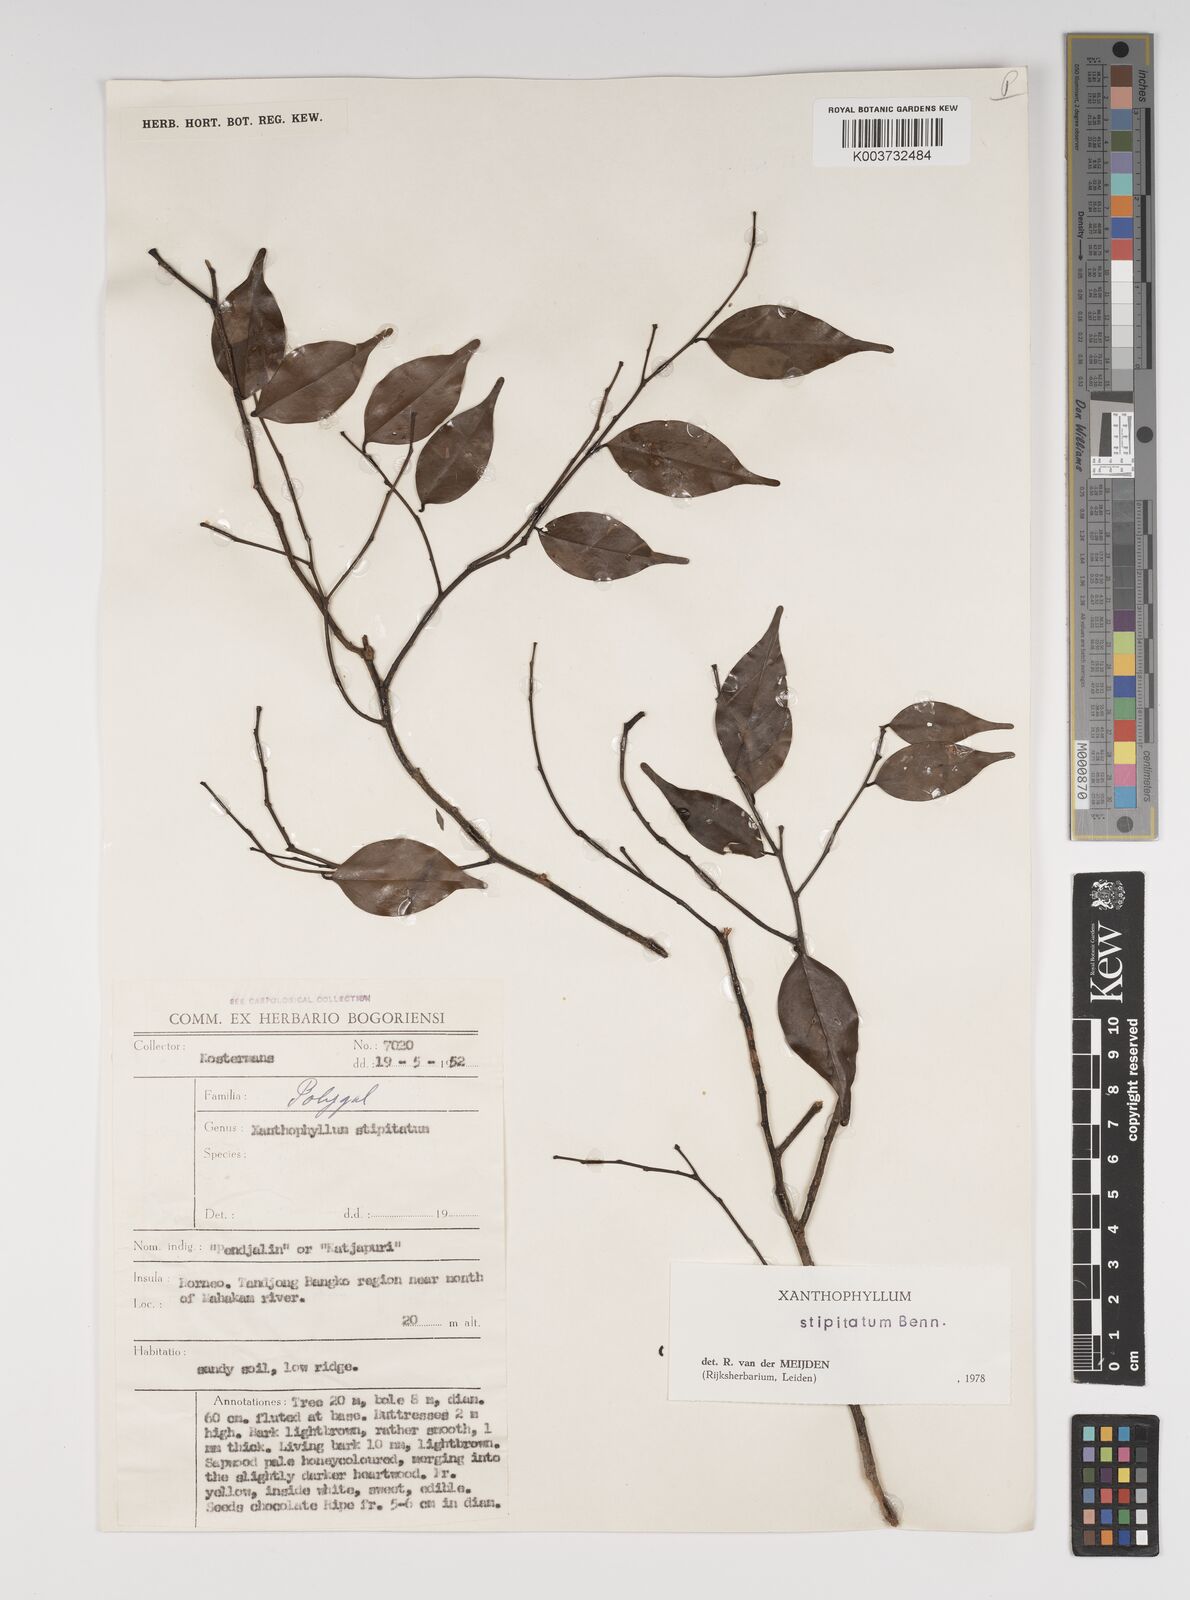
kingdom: Plantae
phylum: Tracheophyta
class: Magnoliopsida
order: Fabales
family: Polygalaceae
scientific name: Polygalaceae
